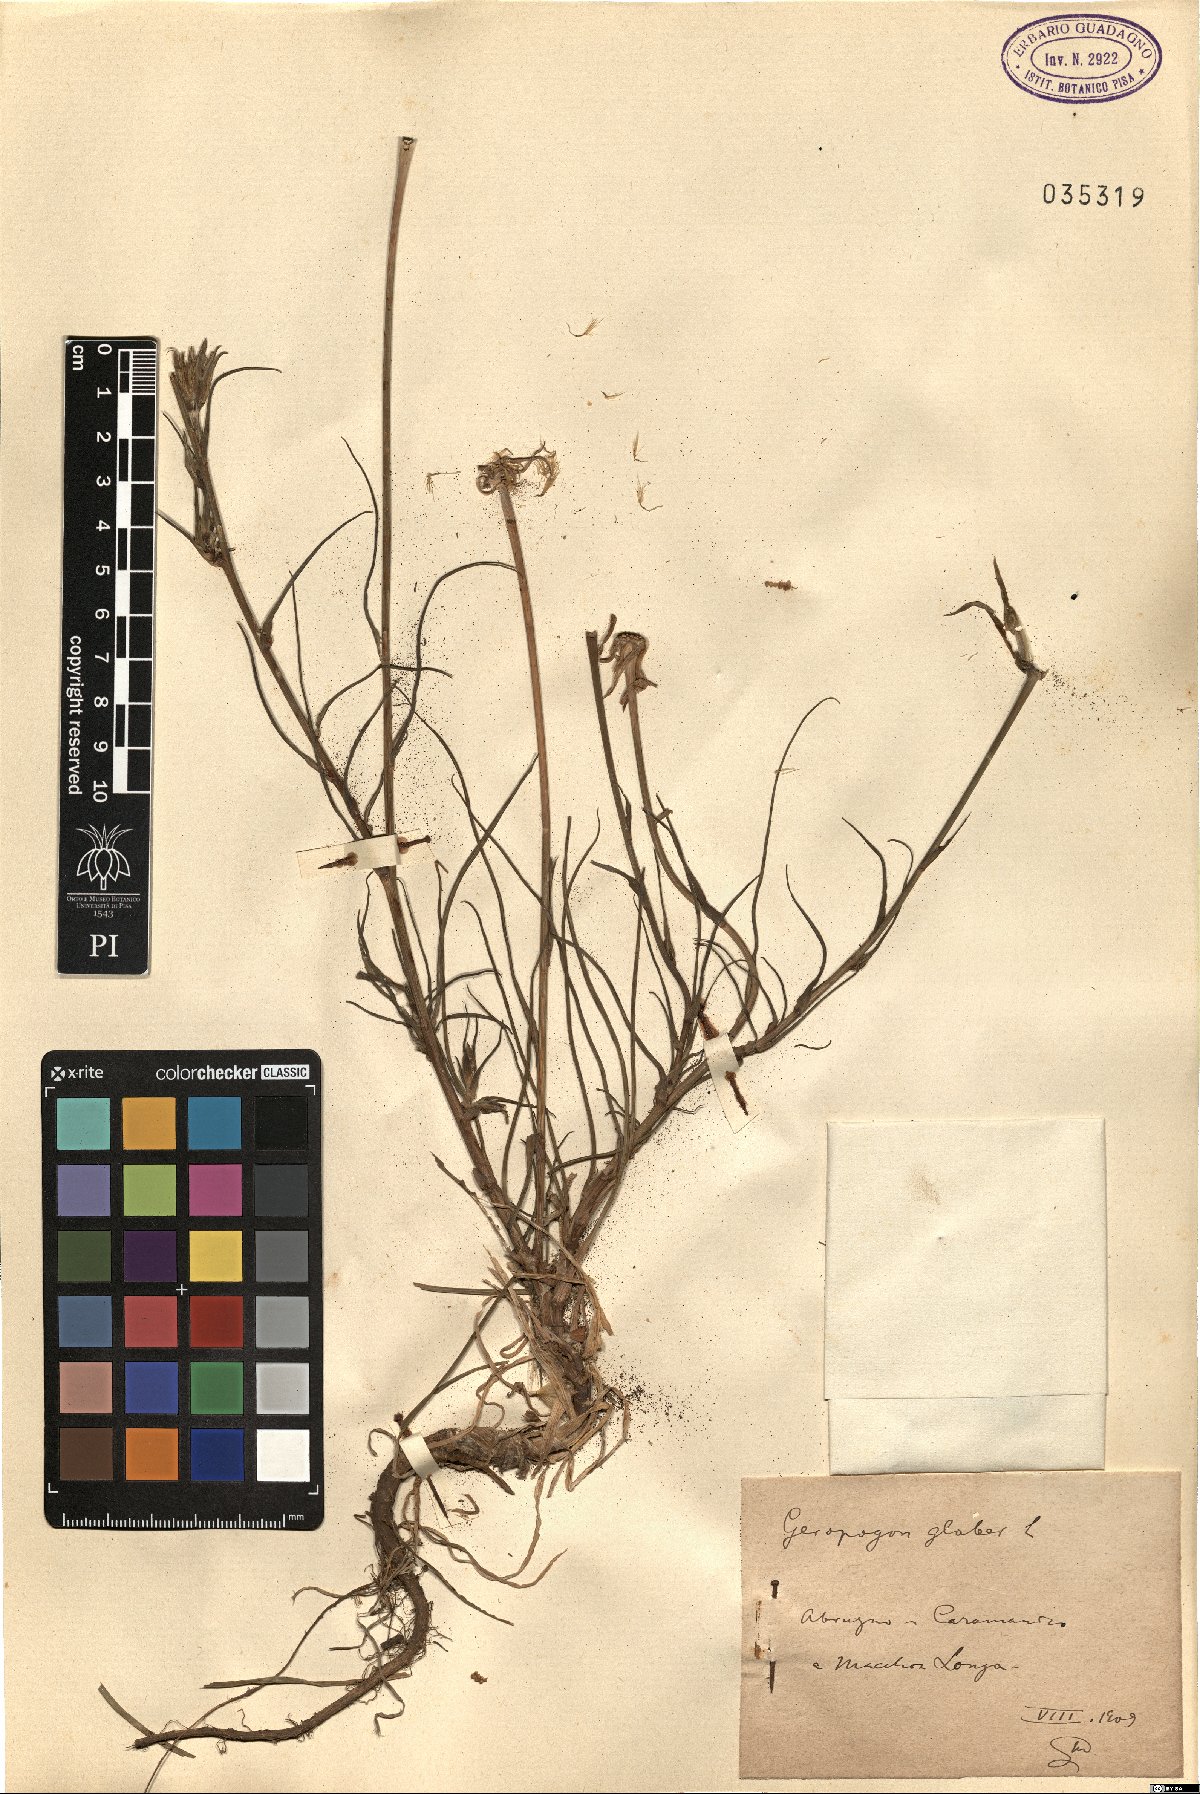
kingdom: Plantae
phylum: Tracheophyta
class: Magnoliopsida
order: Asterales
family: Asteraceae
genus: Geropogon
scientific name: Geropogon hybridus
